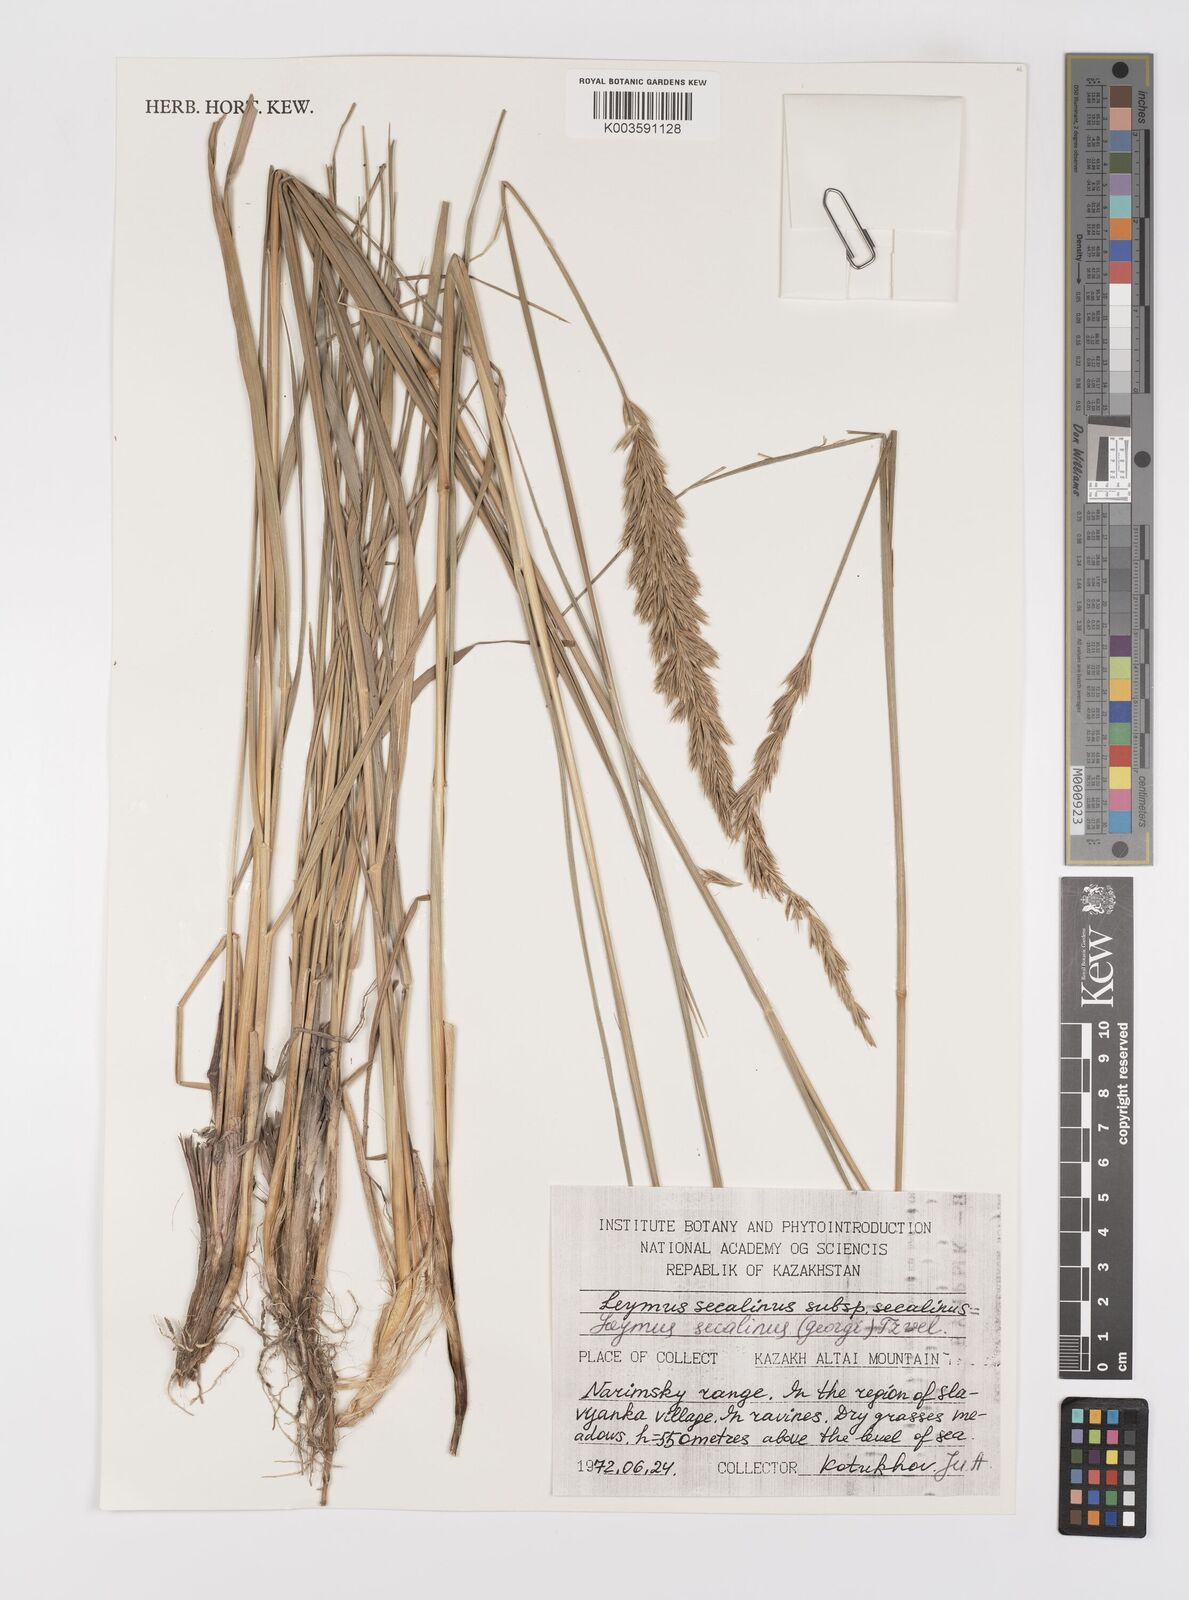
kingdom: Plantae
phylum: Tracheophyta
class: Liliopsida
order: Poales
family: Poaceae
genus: Leymus
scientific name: Leymus secalinus
